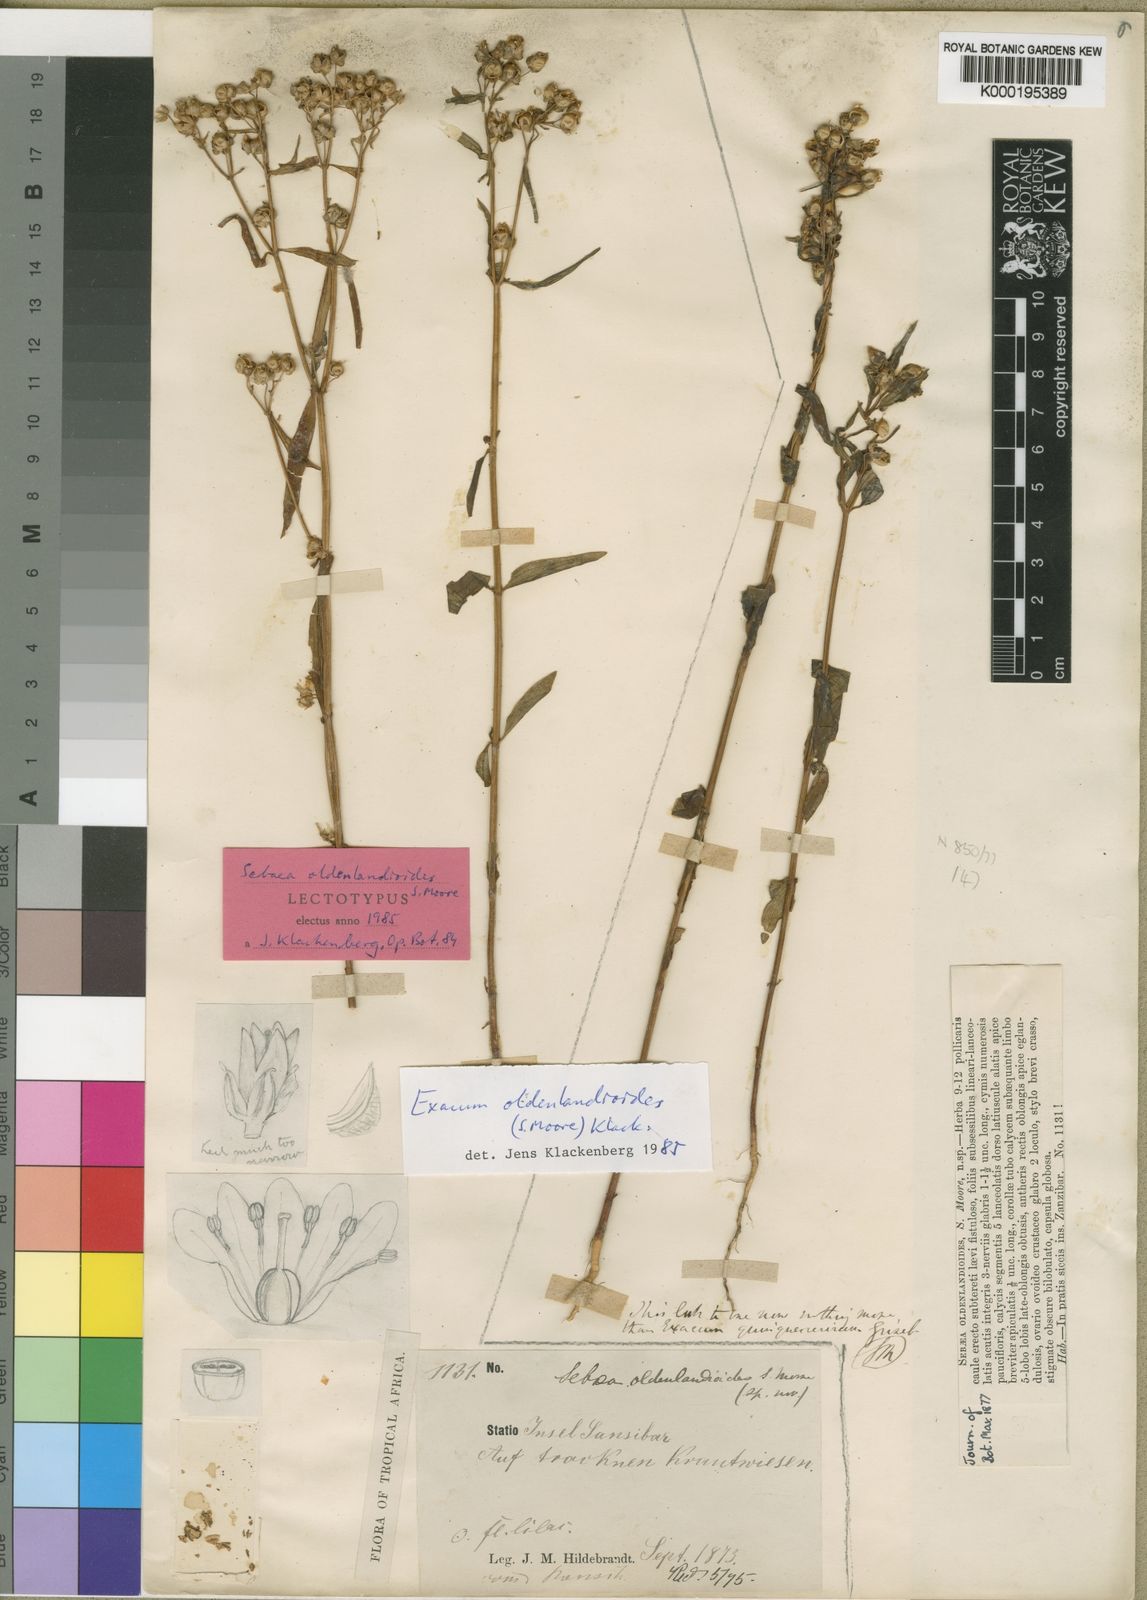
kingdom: Plantae
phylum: Tracheophyta
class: Magnoliopsida
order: Gentianales
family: Gentianaceae
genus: Exacum
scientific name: Exacum oldenlandioides
